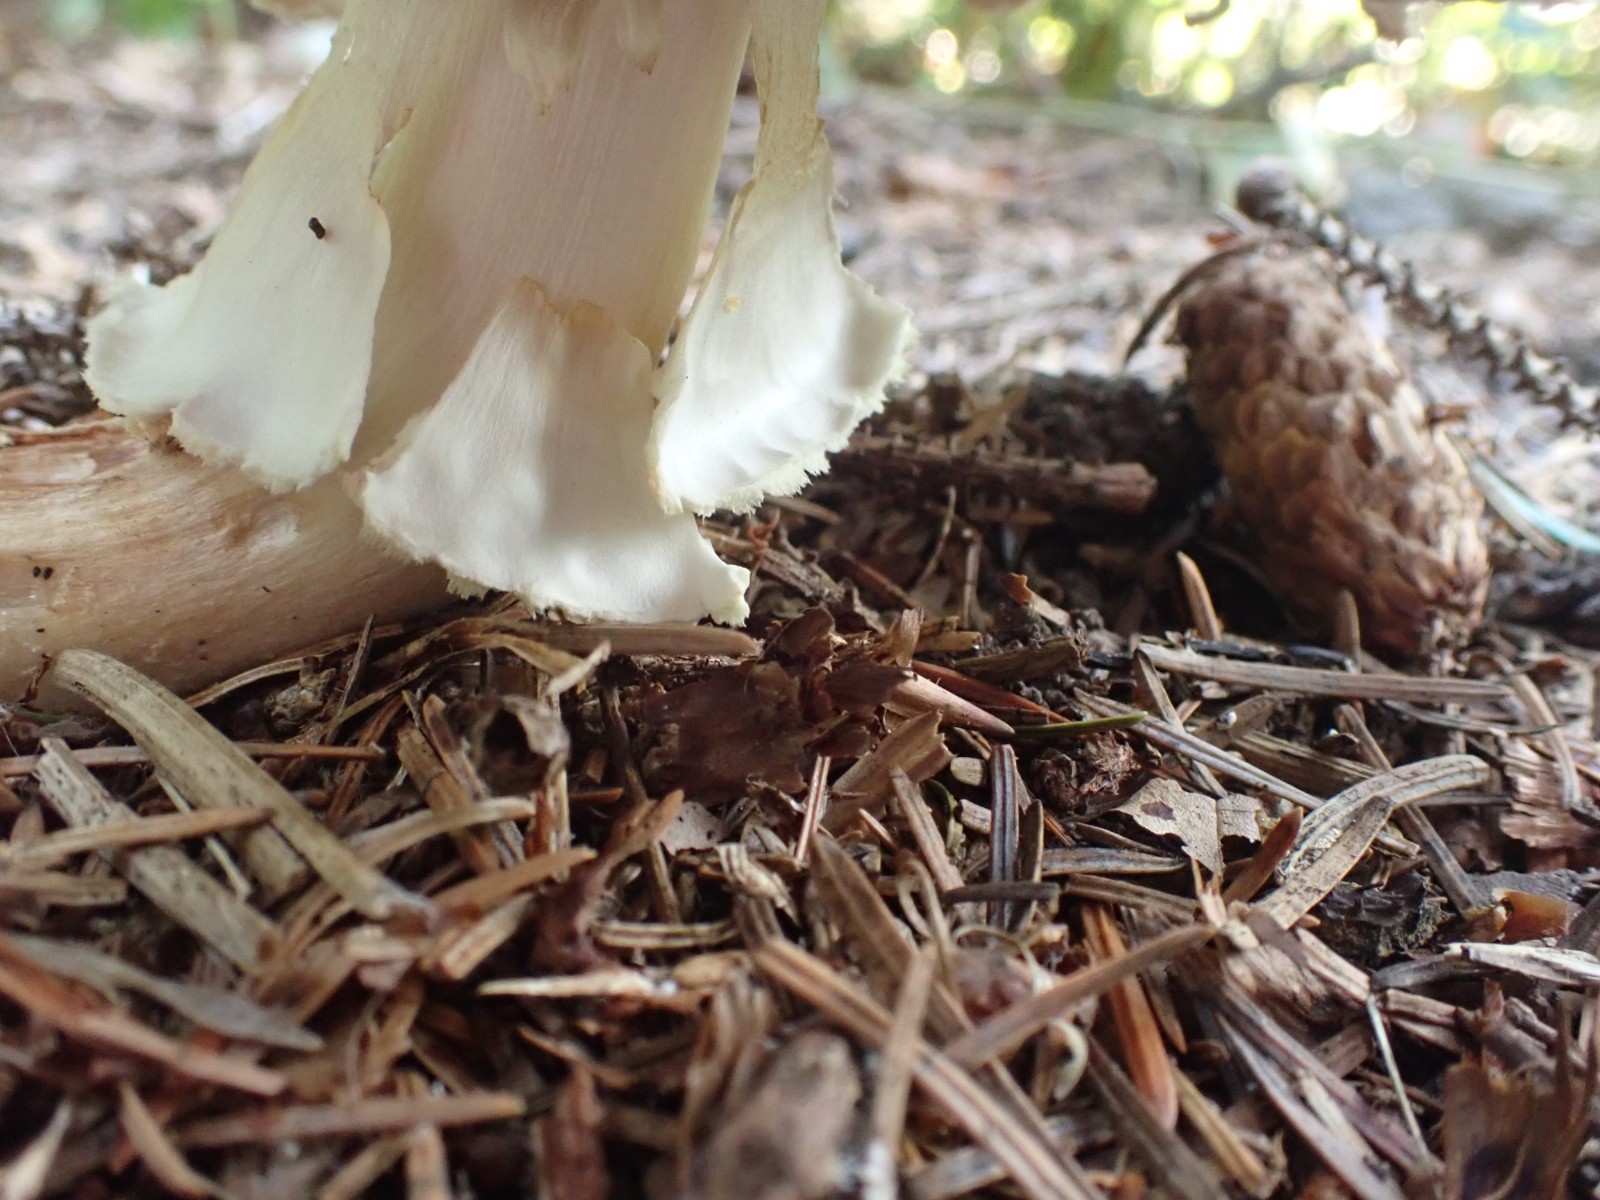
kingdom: Fungi
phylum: Basidiomycota
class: Agaricomycetes
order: Agaricales
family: Agaricaceae
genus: Agaricus
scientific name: Agaricus
